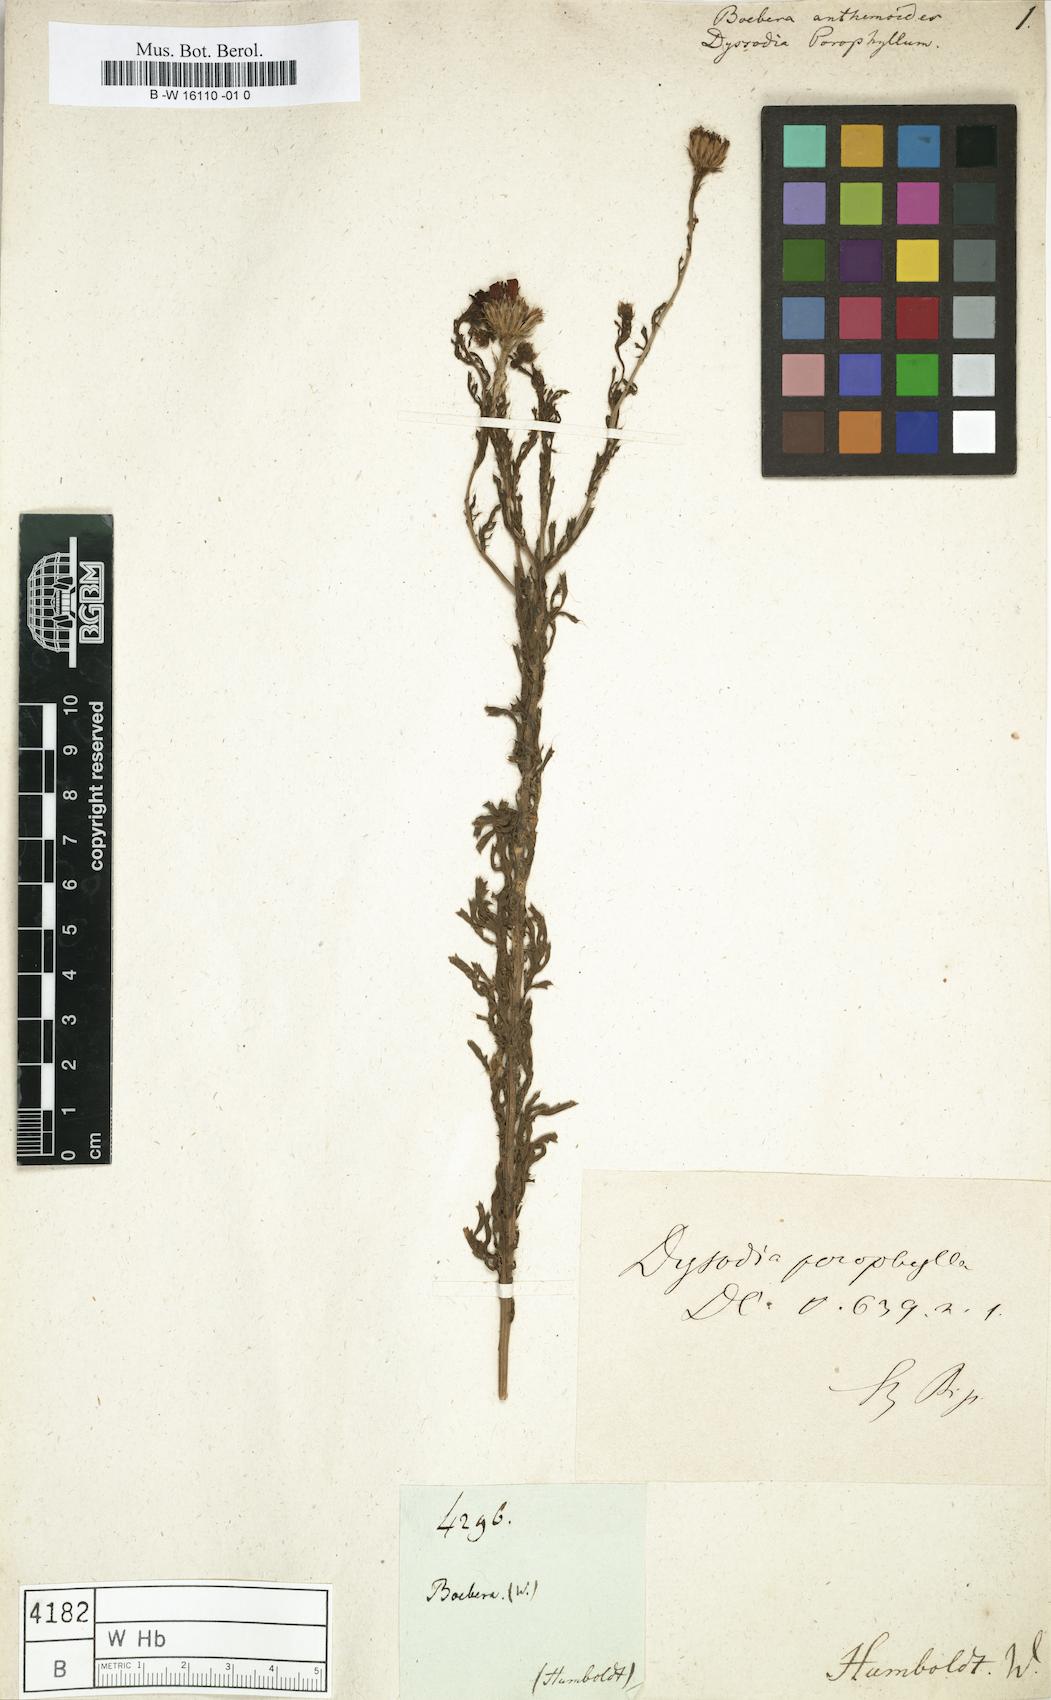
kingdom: Plantae
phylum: Tracheophyta
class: Magnoliopsida
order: Asterales
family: Asteraceae
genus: Dyssodia
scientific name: Dyssodia
